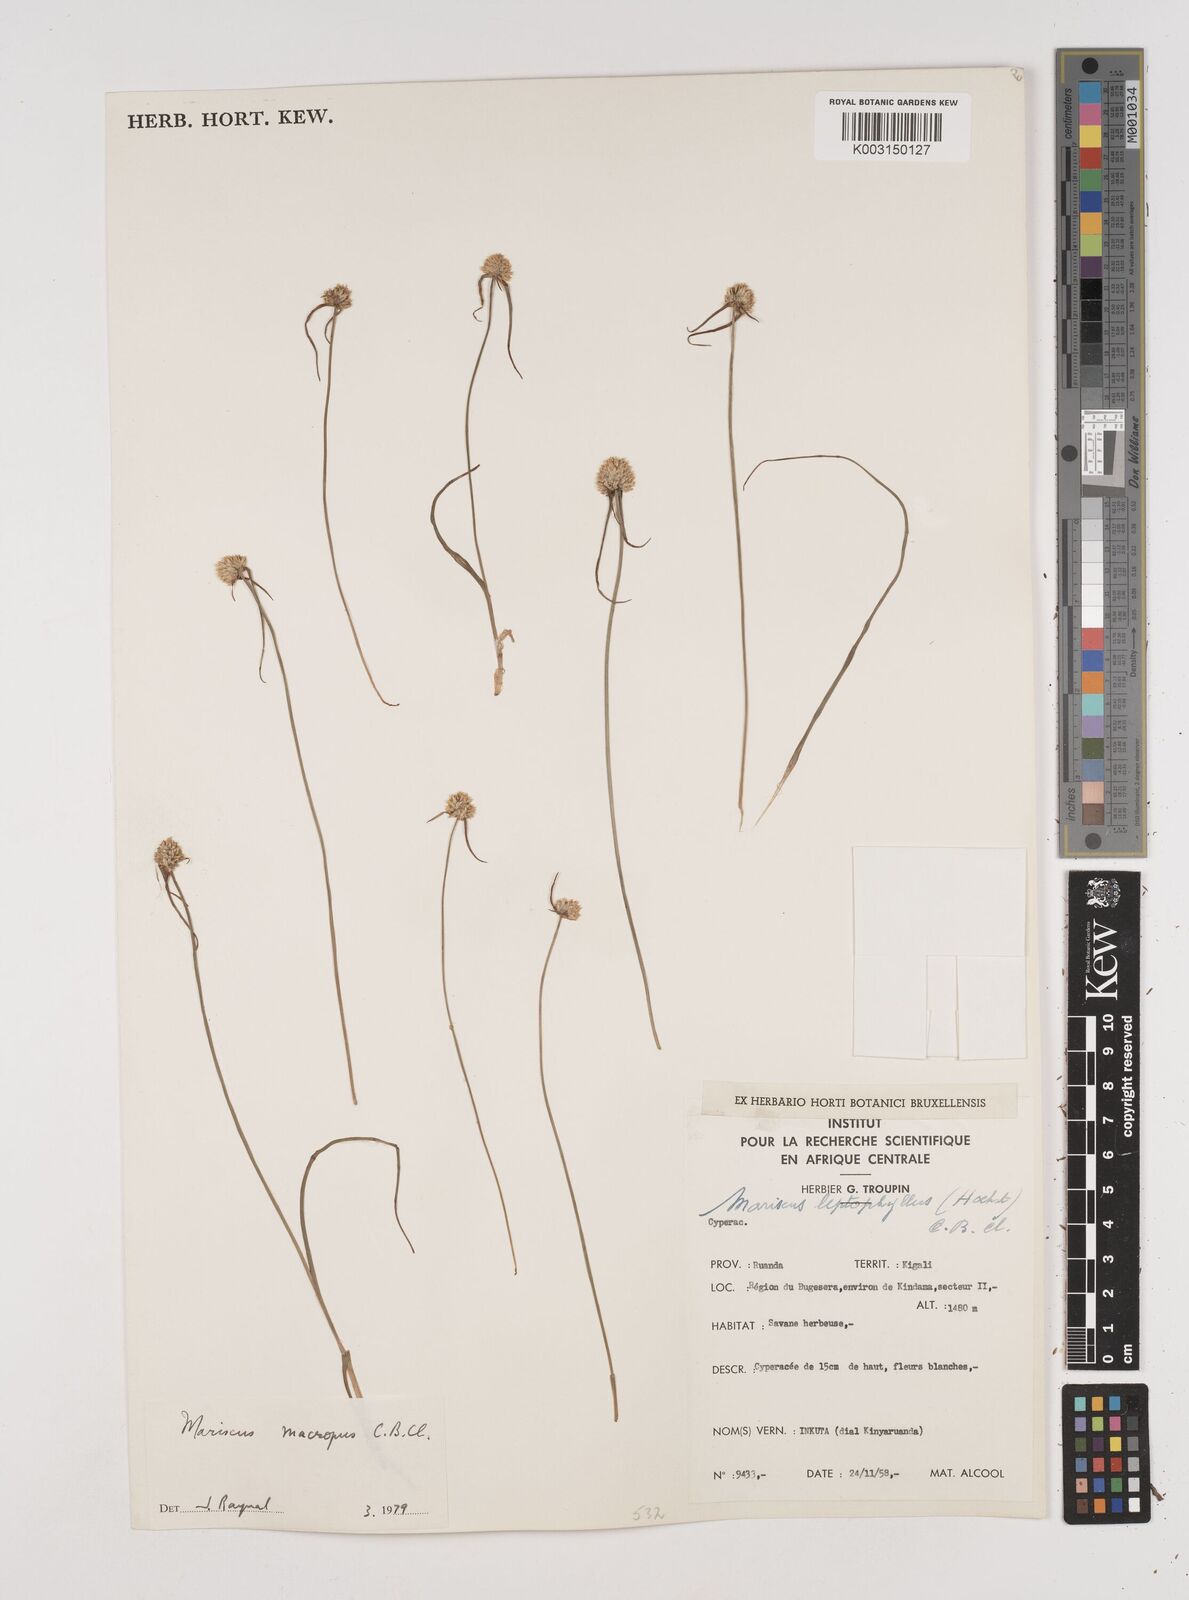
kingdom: Plantae
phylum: Tracheophyta
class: Liliopsida
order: Poales
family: Cyperaceae
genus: Cyperus
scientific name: Cyperus mollipes
